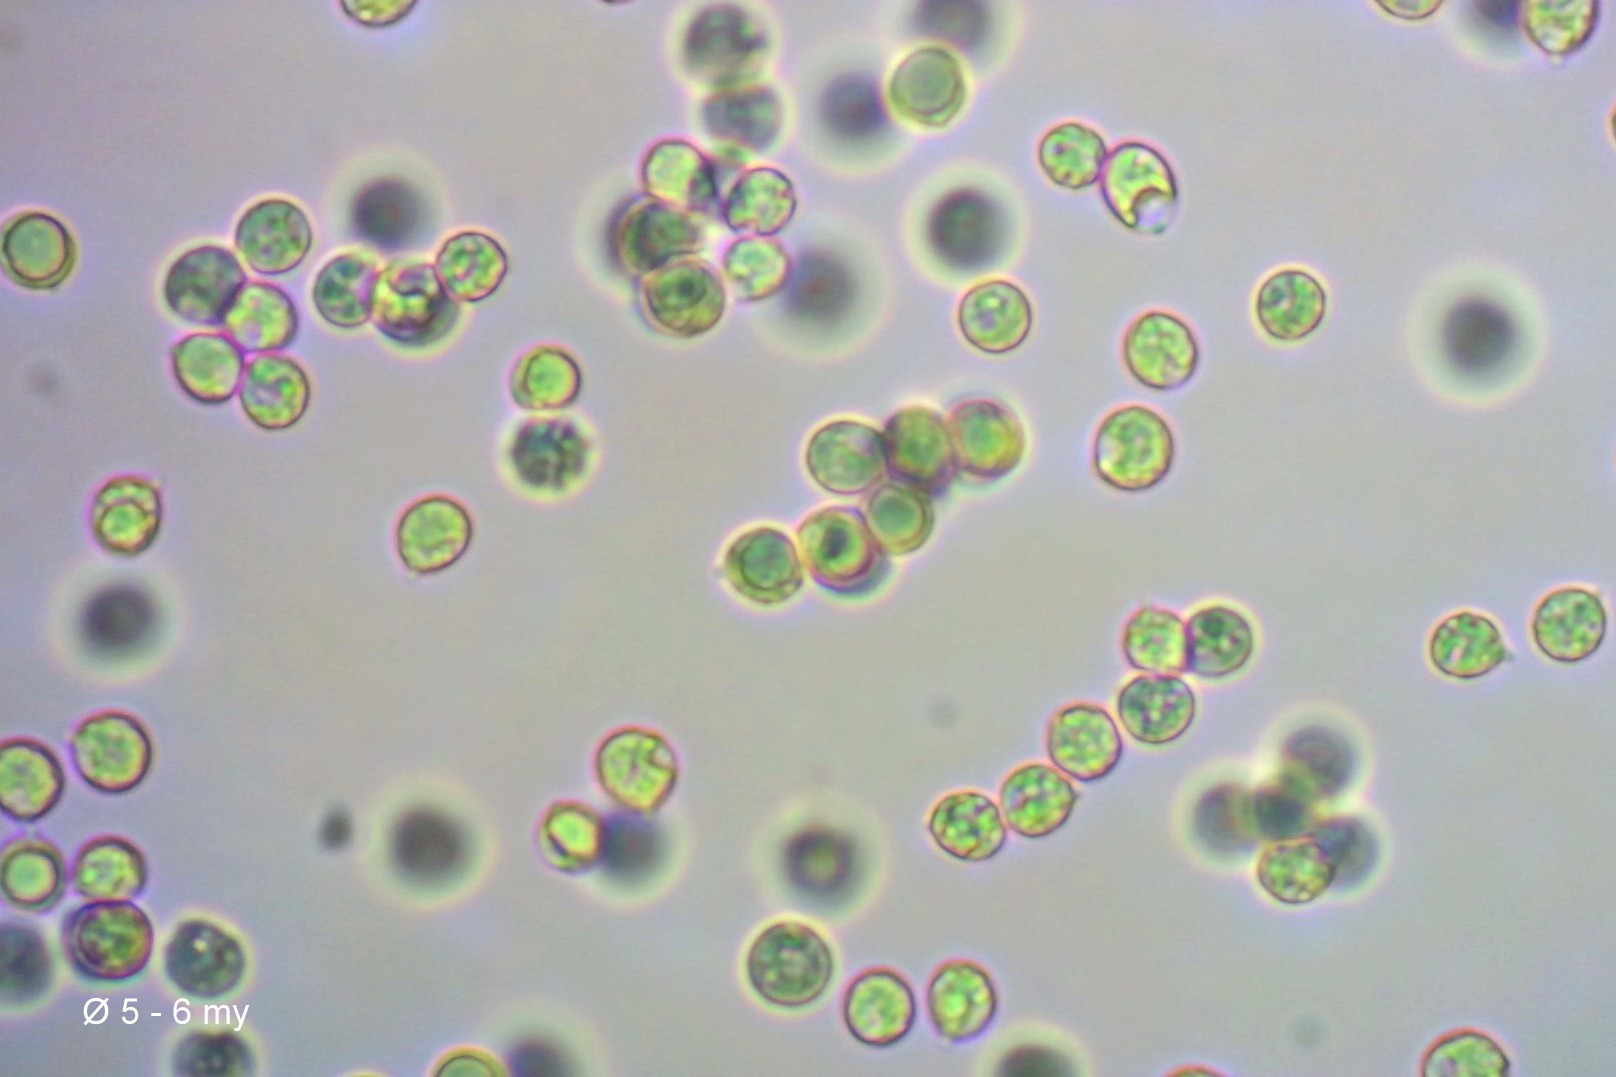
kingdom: Fungi
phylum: Basidiomycota
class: Agaricomycetes
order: Agaricales
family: Marasmiaceae
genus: Pleurocybella
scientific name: Pleurocybella porrigens
